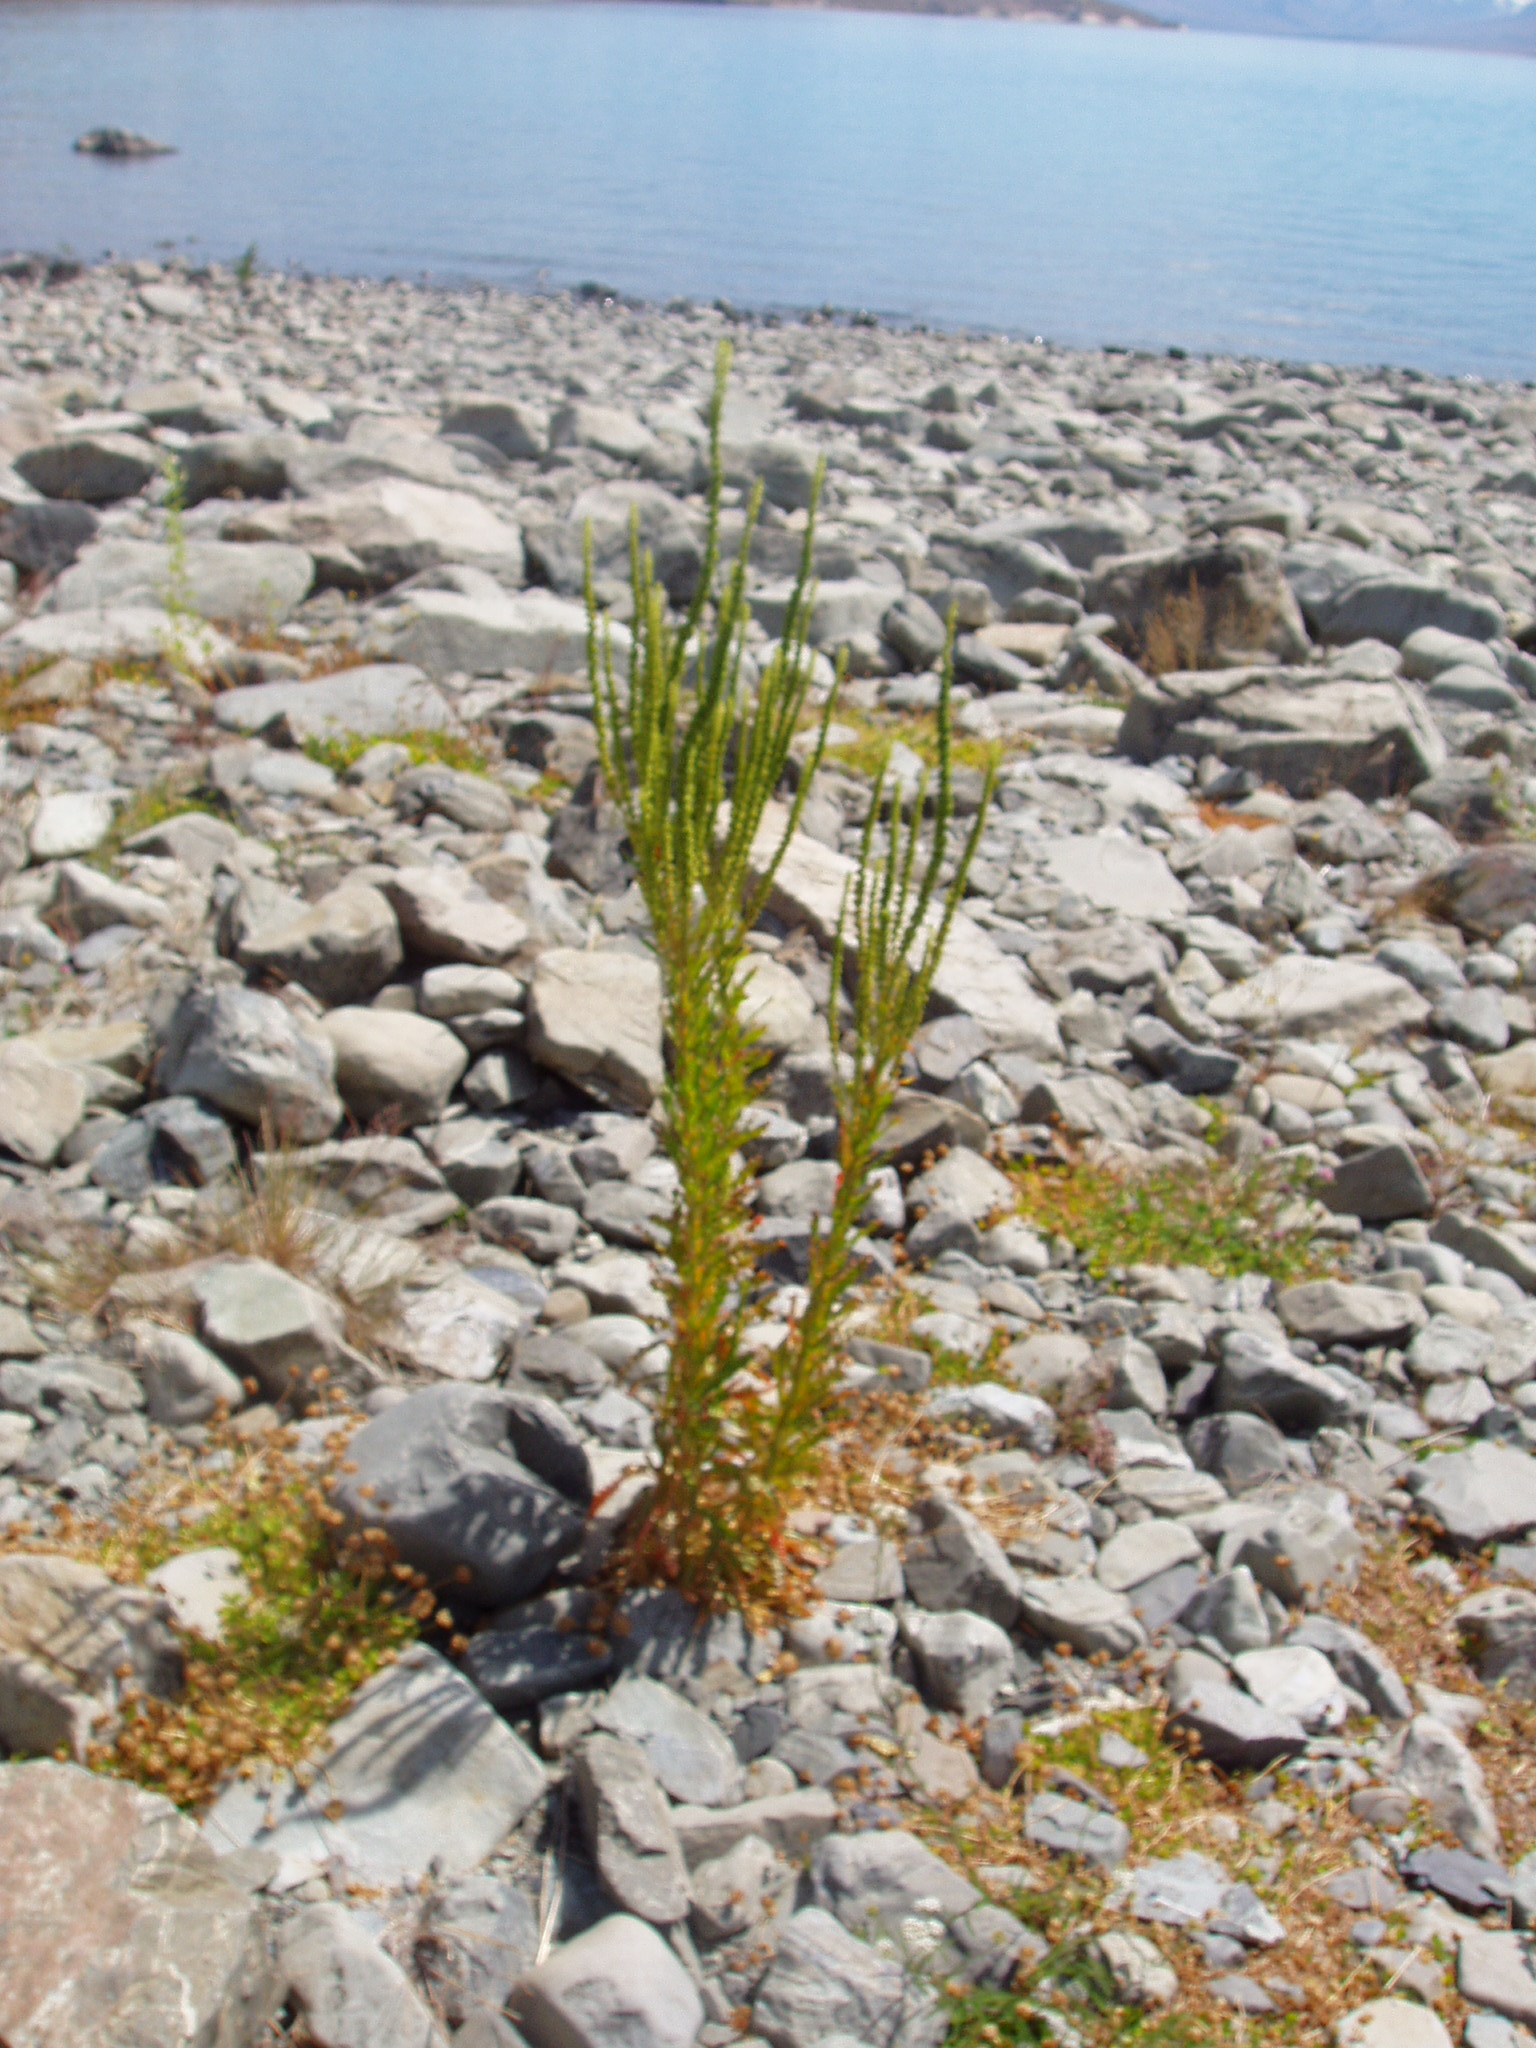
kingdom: Plantae
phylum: Tracheophyta
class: Magnoliopsida
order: Brassicales
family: Resedaceae
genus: Reseda
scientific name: Reseda luteola
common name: Weld
